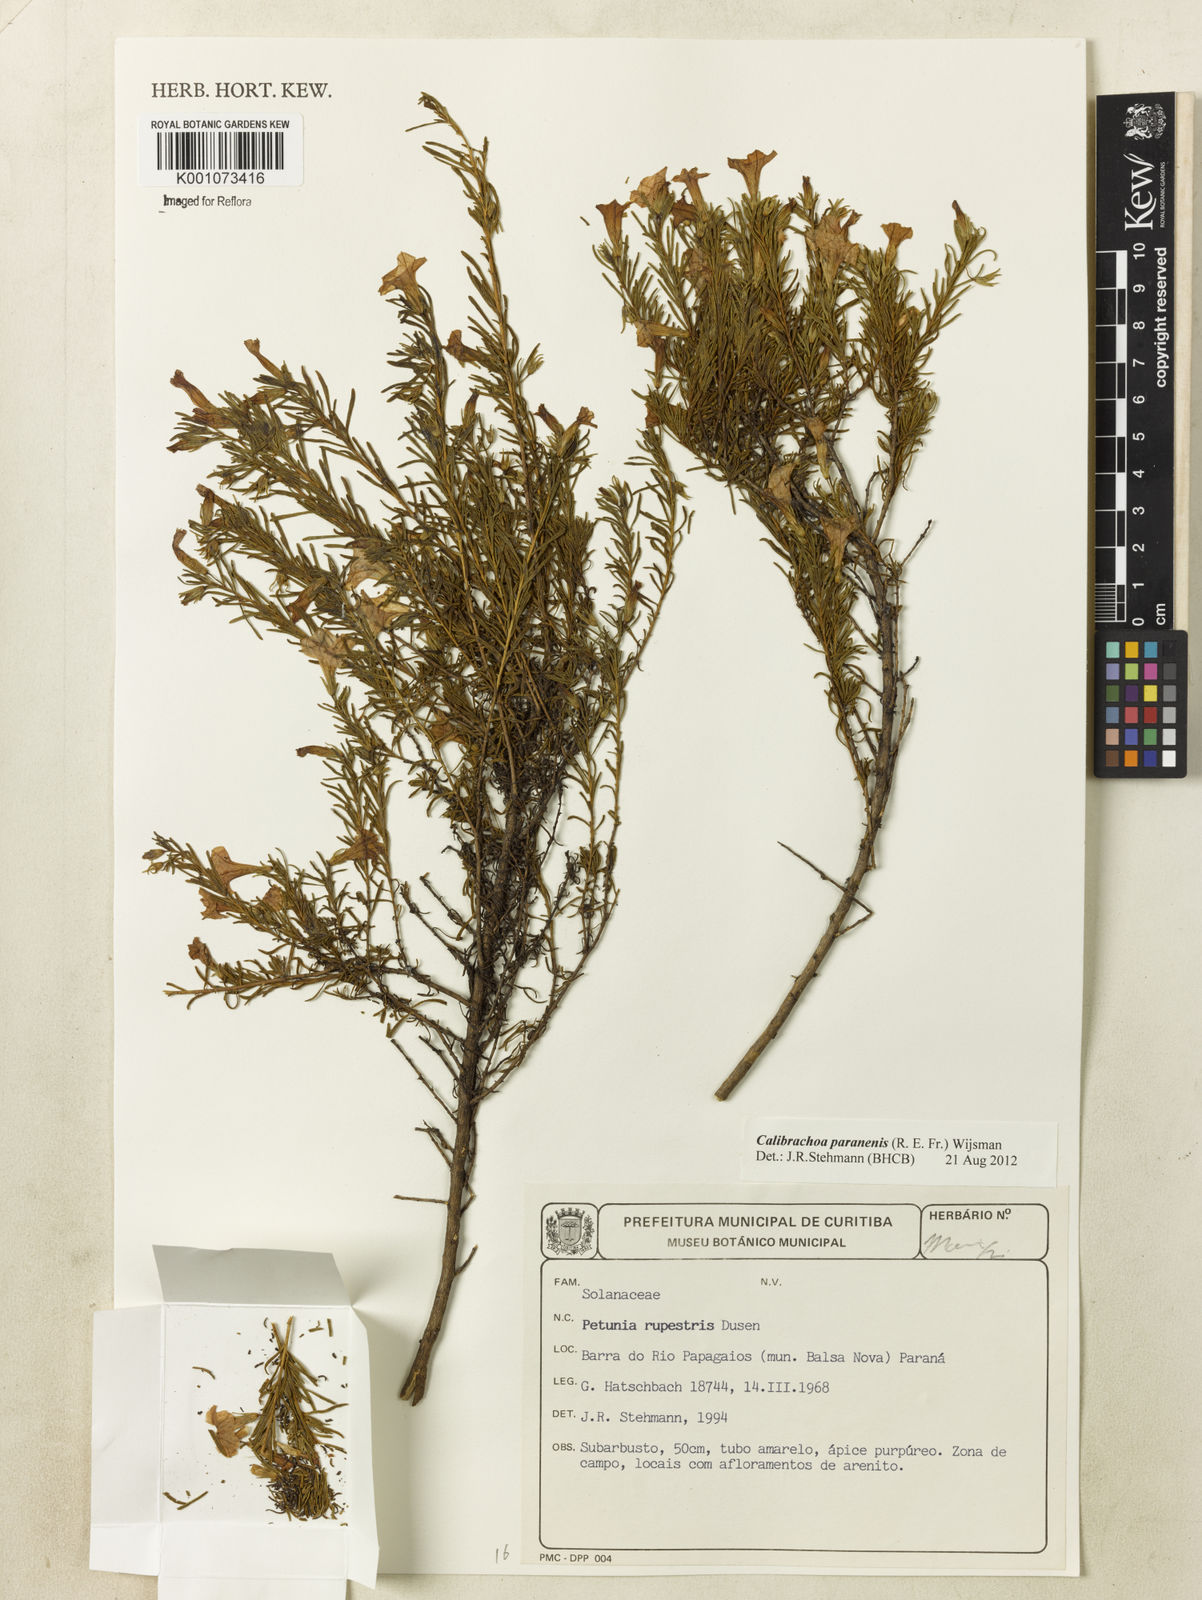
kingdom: Plantae
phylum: Tracheophyta
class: Magnoliopsida
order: Solanales
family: Solanaceae
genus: Calibrachoa
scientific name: Calibrachoa
